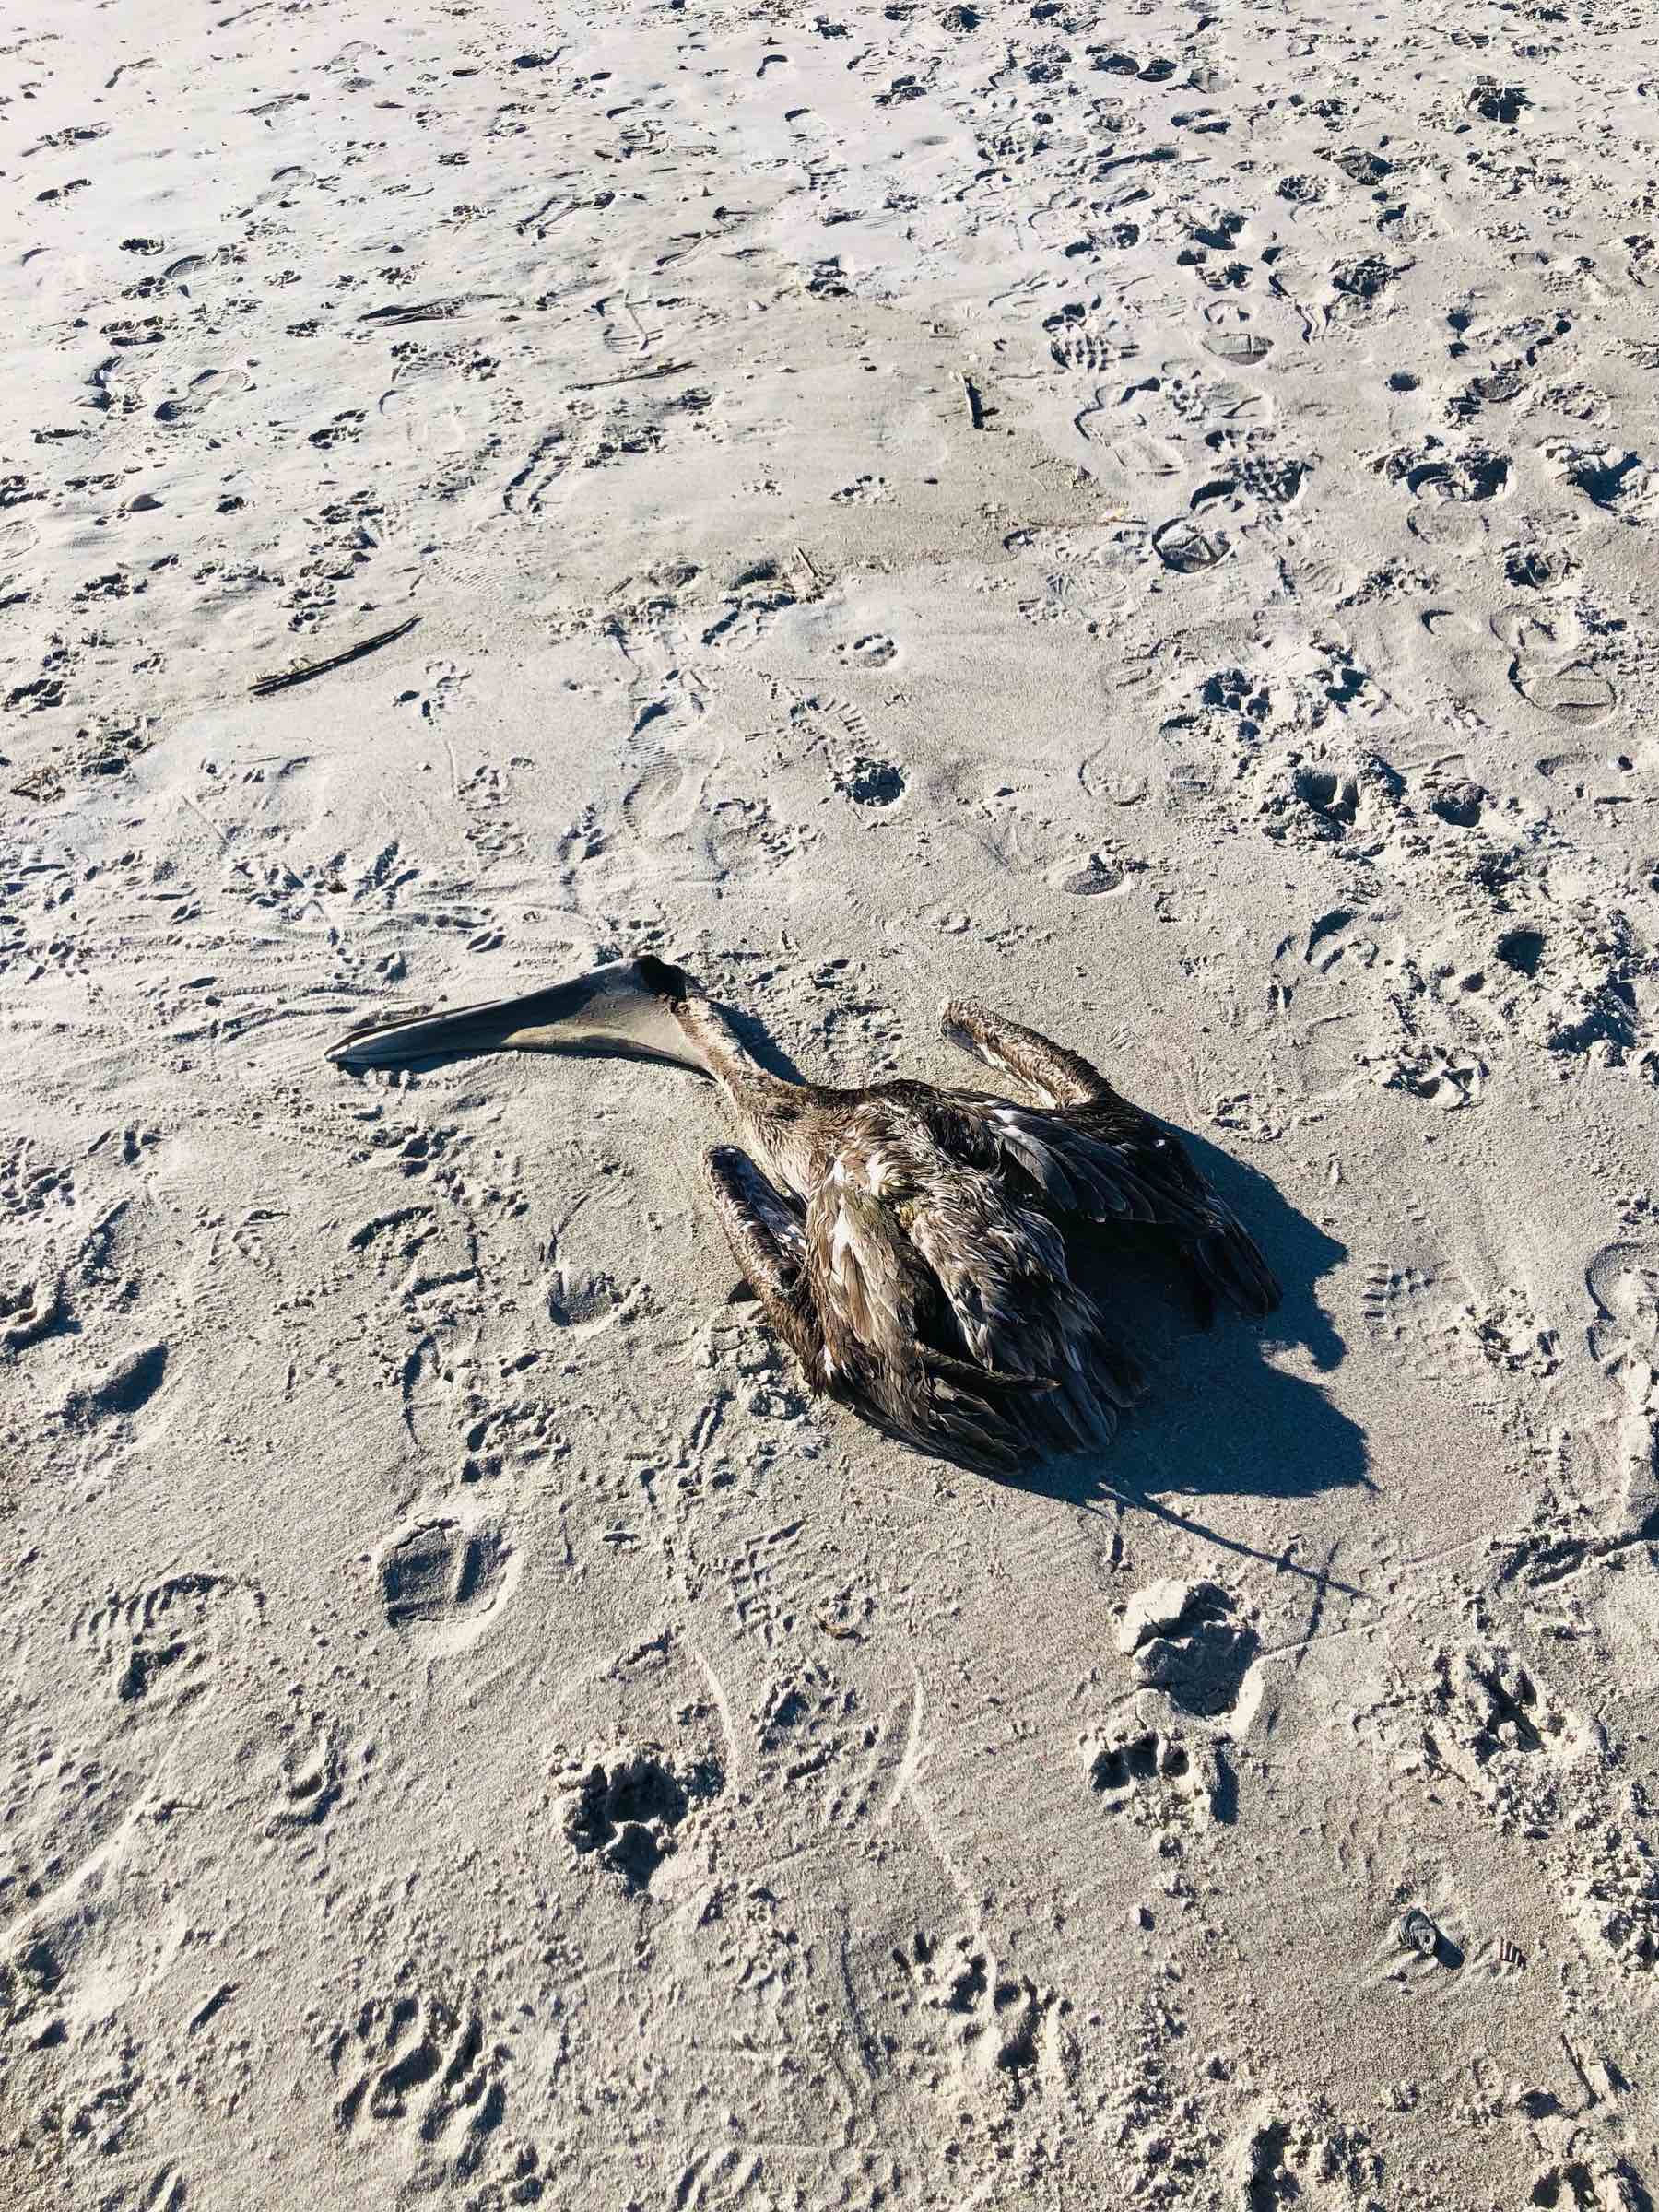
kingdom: Animalia
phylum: Chordata
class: Aves
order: Pelecaniformes
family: Pelecanidae
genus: Pelecanus
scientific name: Pelecanus occidentalis
